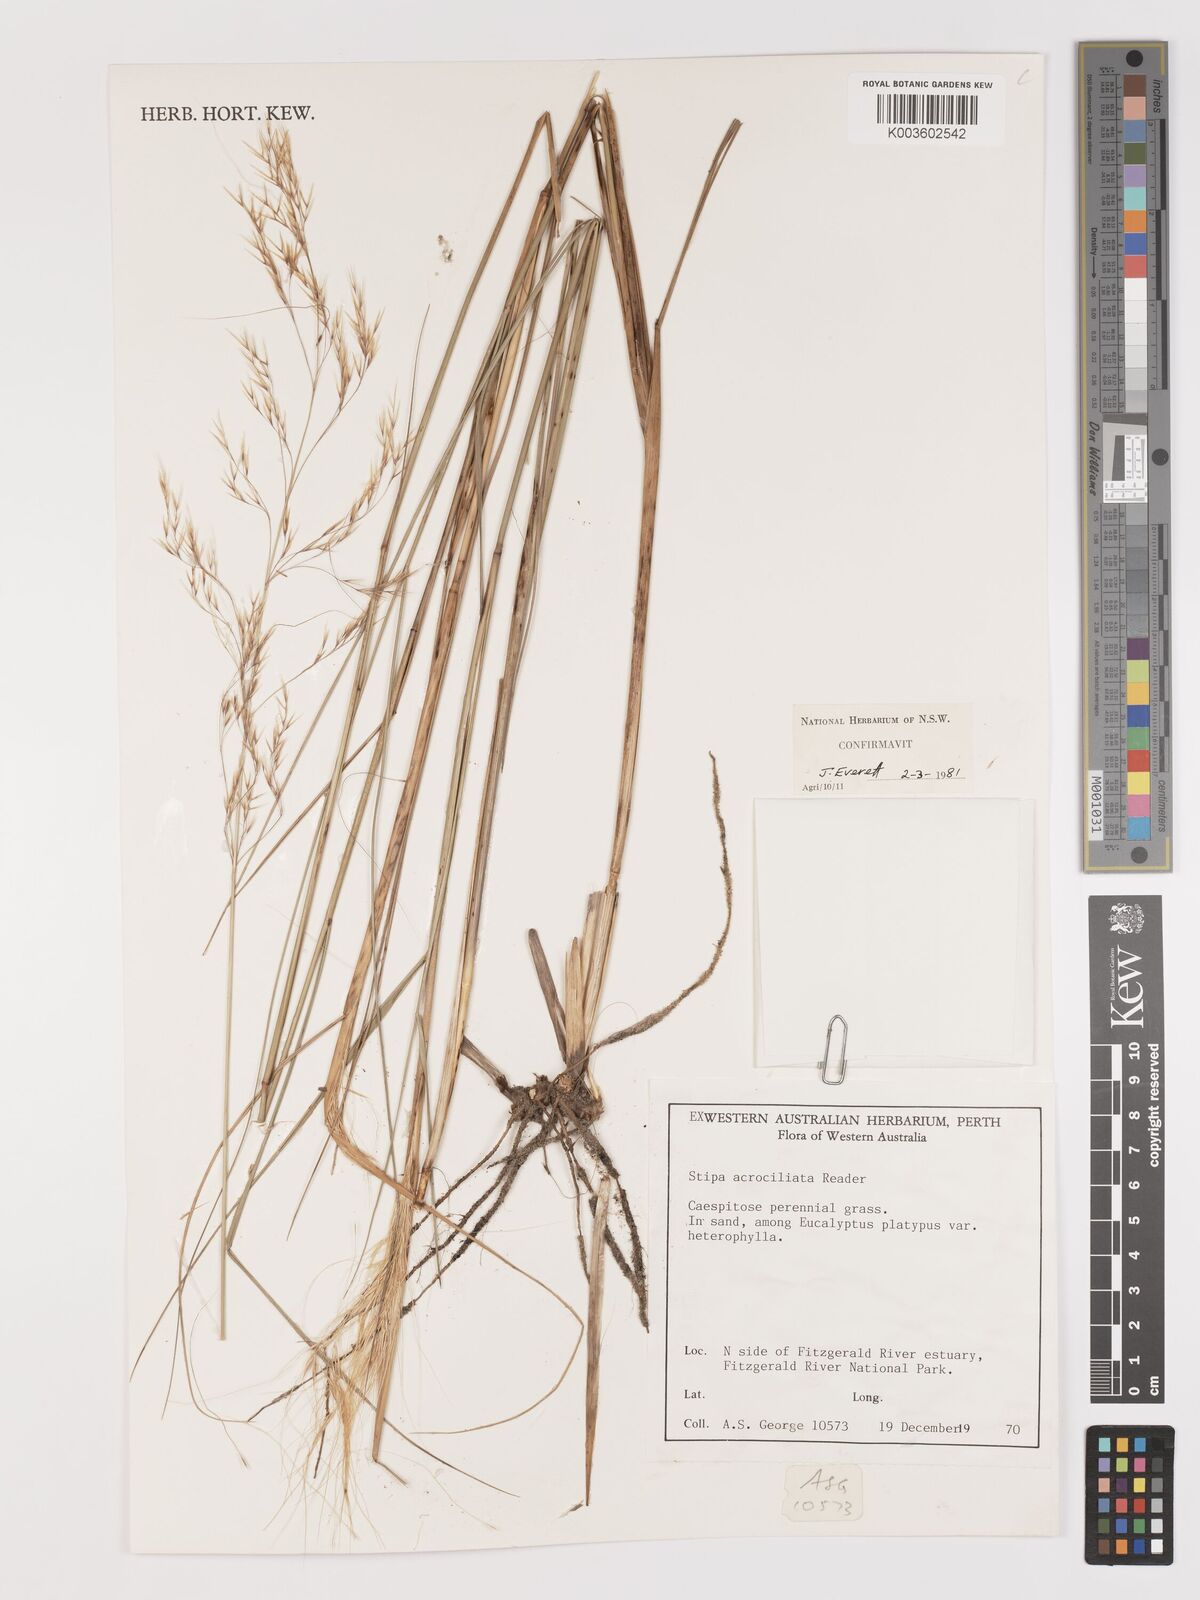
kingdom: Plantae
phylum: Tracheophyta
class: Liliopsida
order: Poales
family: Poaceae
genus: Austrostipa
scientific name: Austrostipa acrociliata
